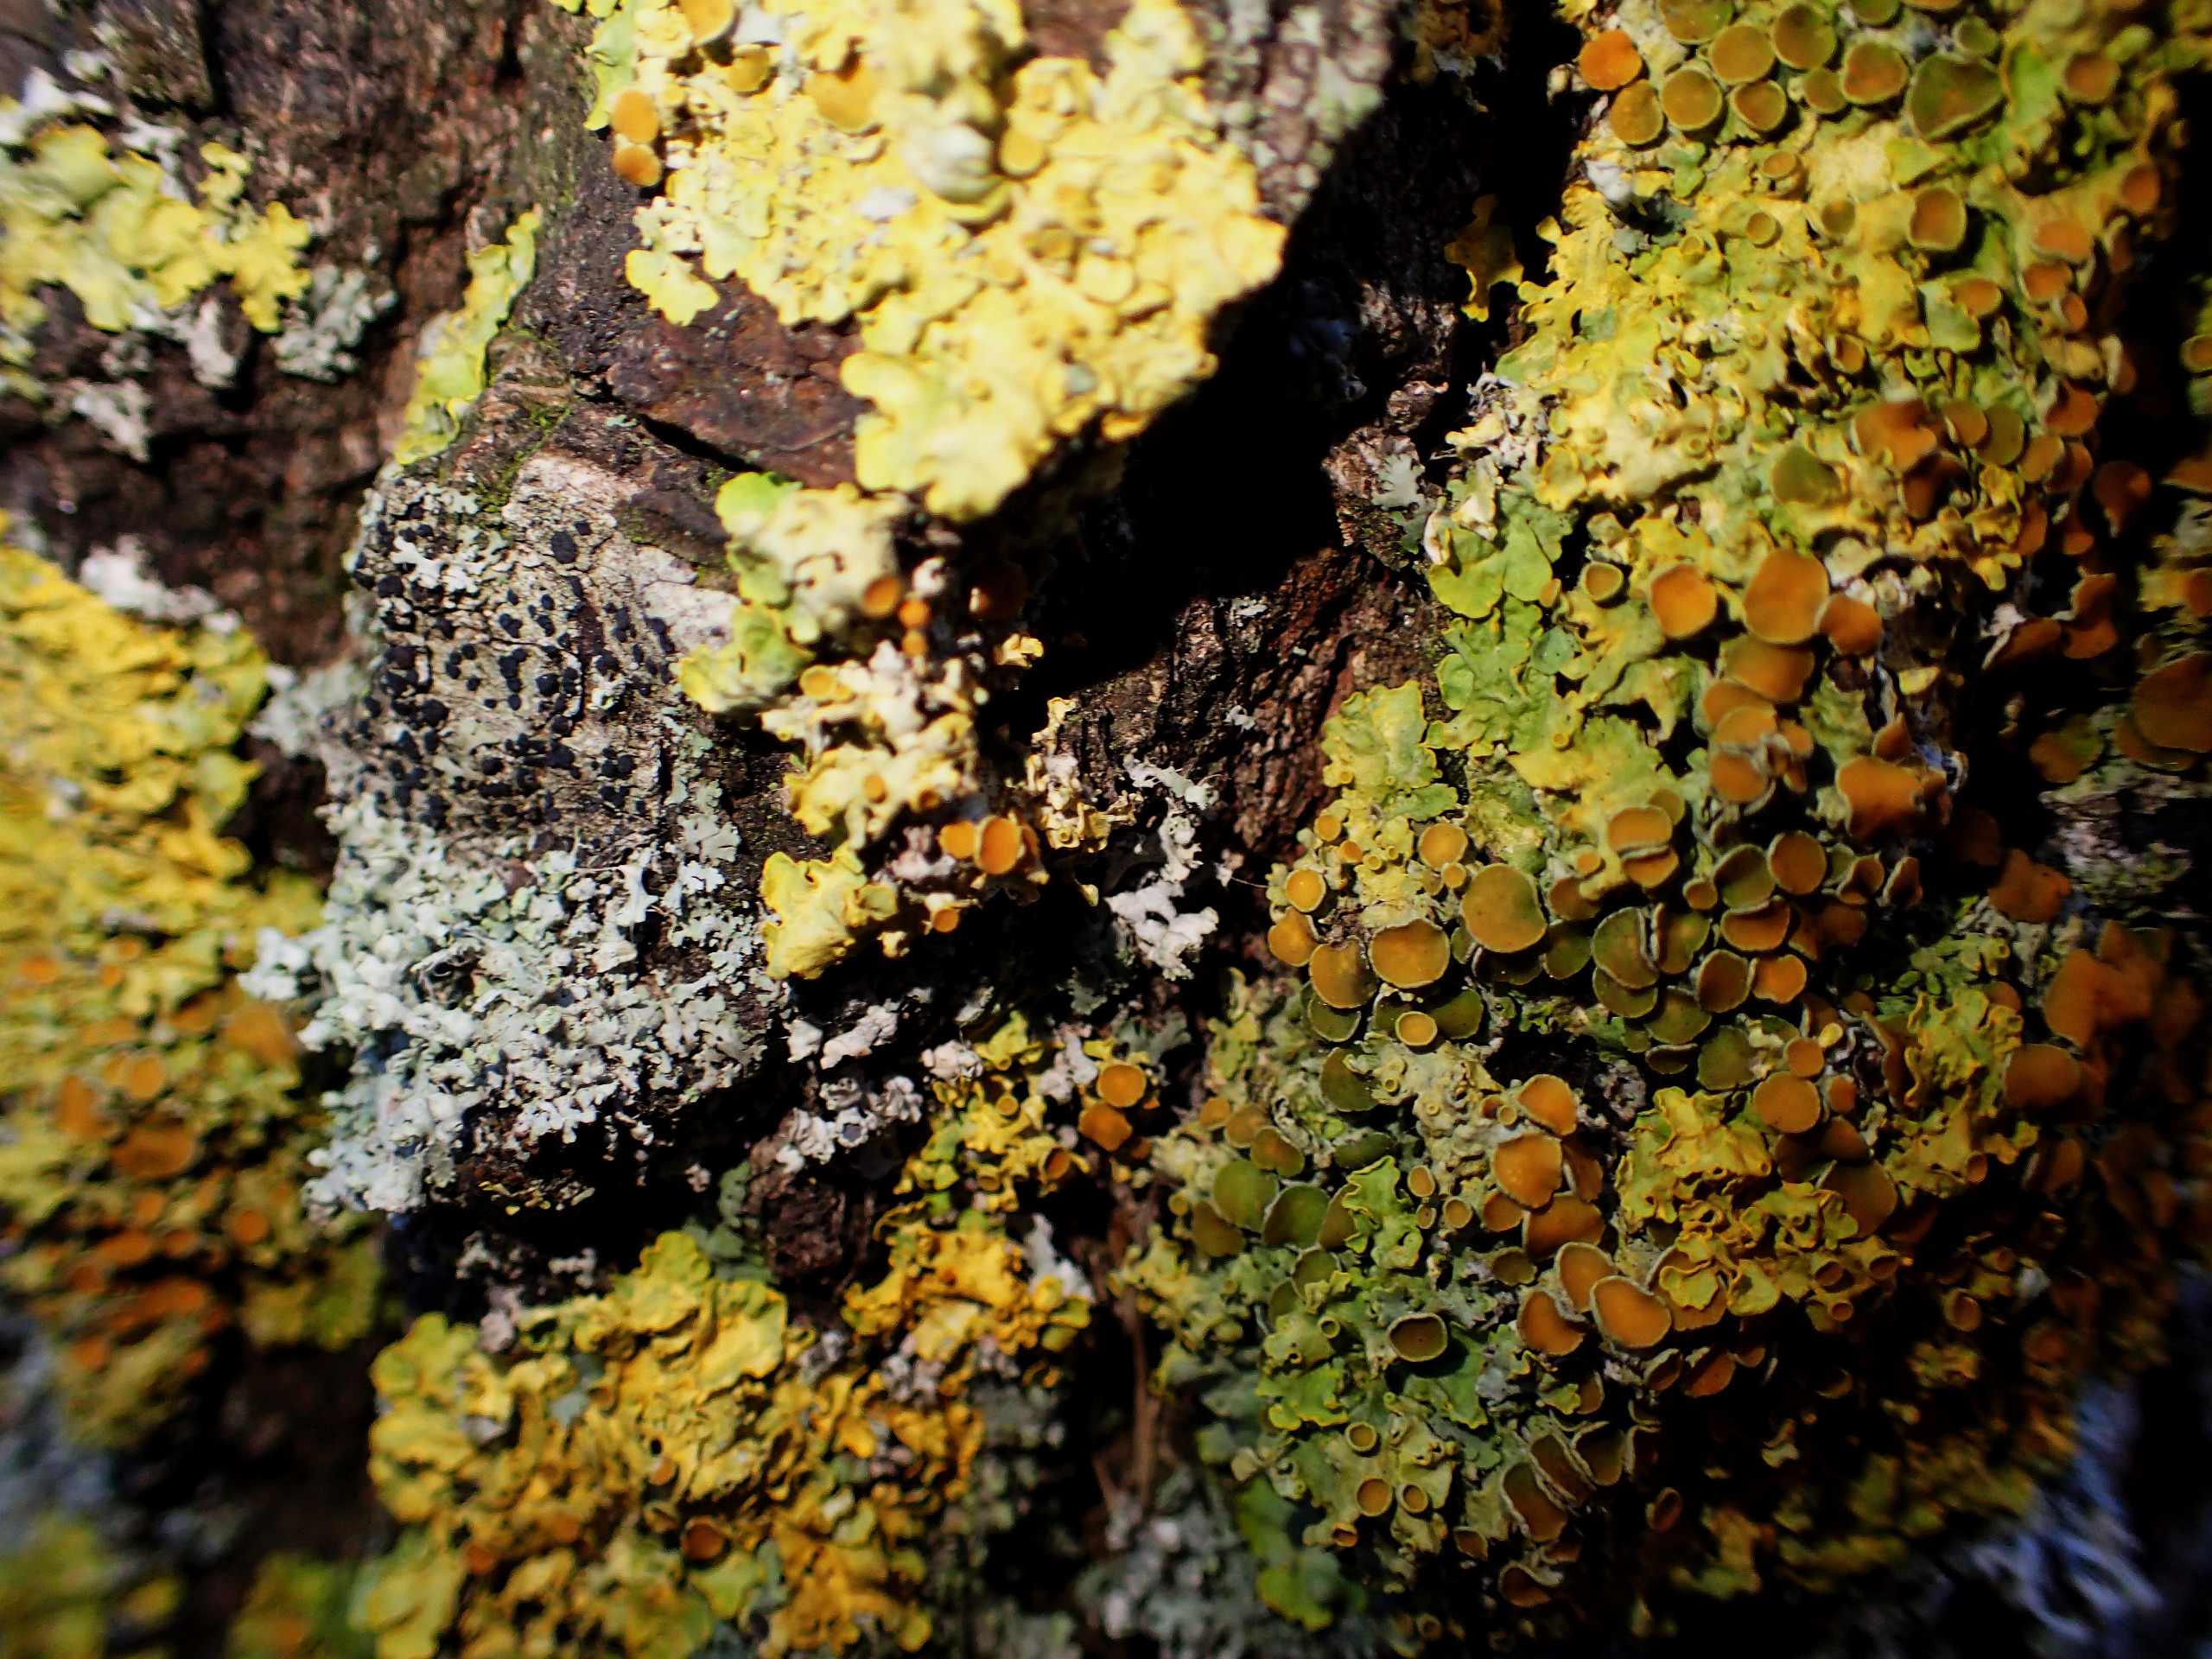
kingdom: Fungi
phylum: Ascomycota
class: Lecanoromycetes
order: Teloschistales
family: Teloschistaceae
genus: Xanthoria
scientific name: Xanthoria parietina
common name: Almindelig væggelav
